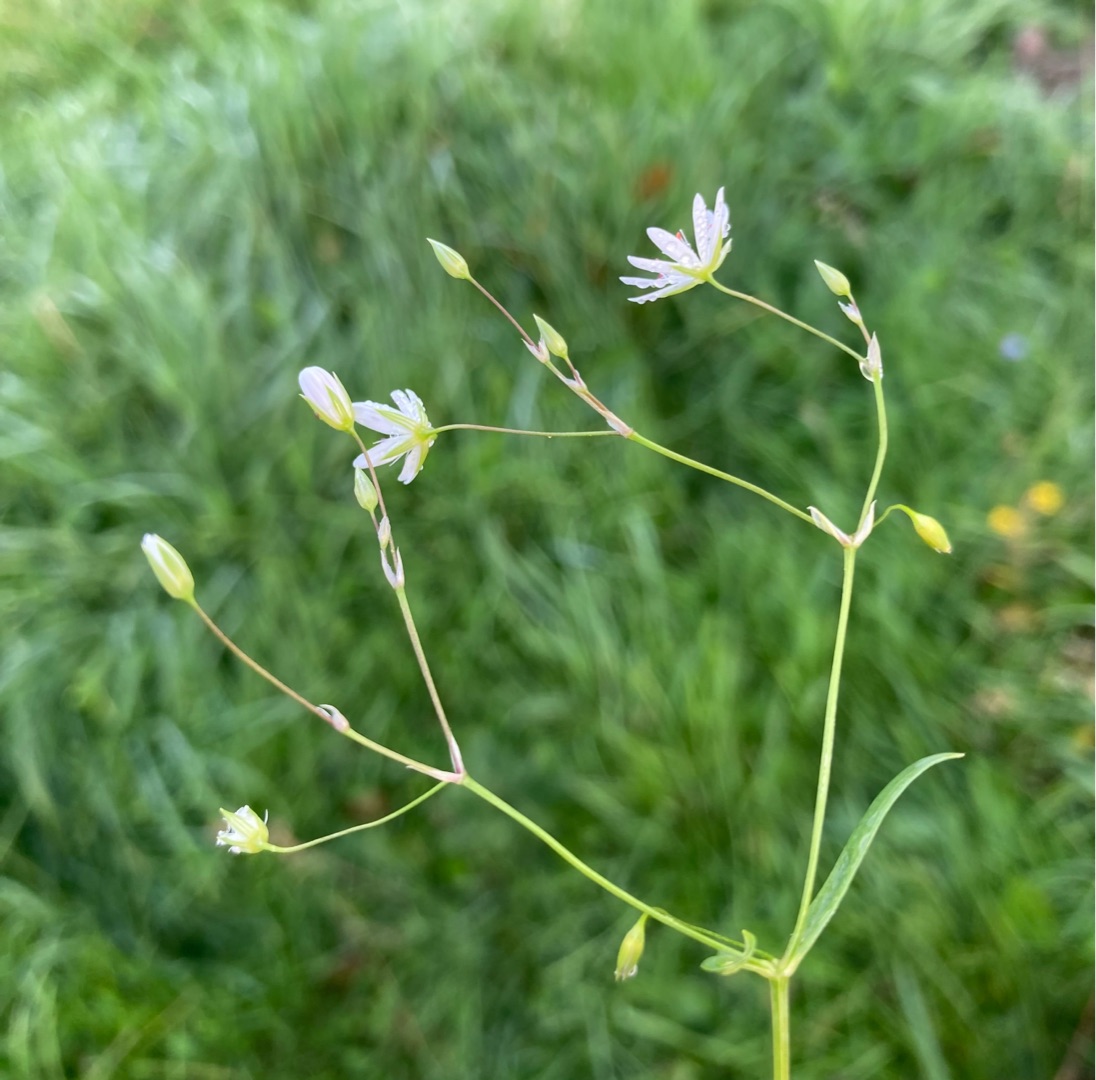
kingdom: Plantae
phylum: Tracheophyta
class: Magnoliopsida
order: Caryophyllales
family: Caryophyllaceae
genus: Stellaria
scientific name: Stellaria graminea
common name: Græsbladet fladstjerne
